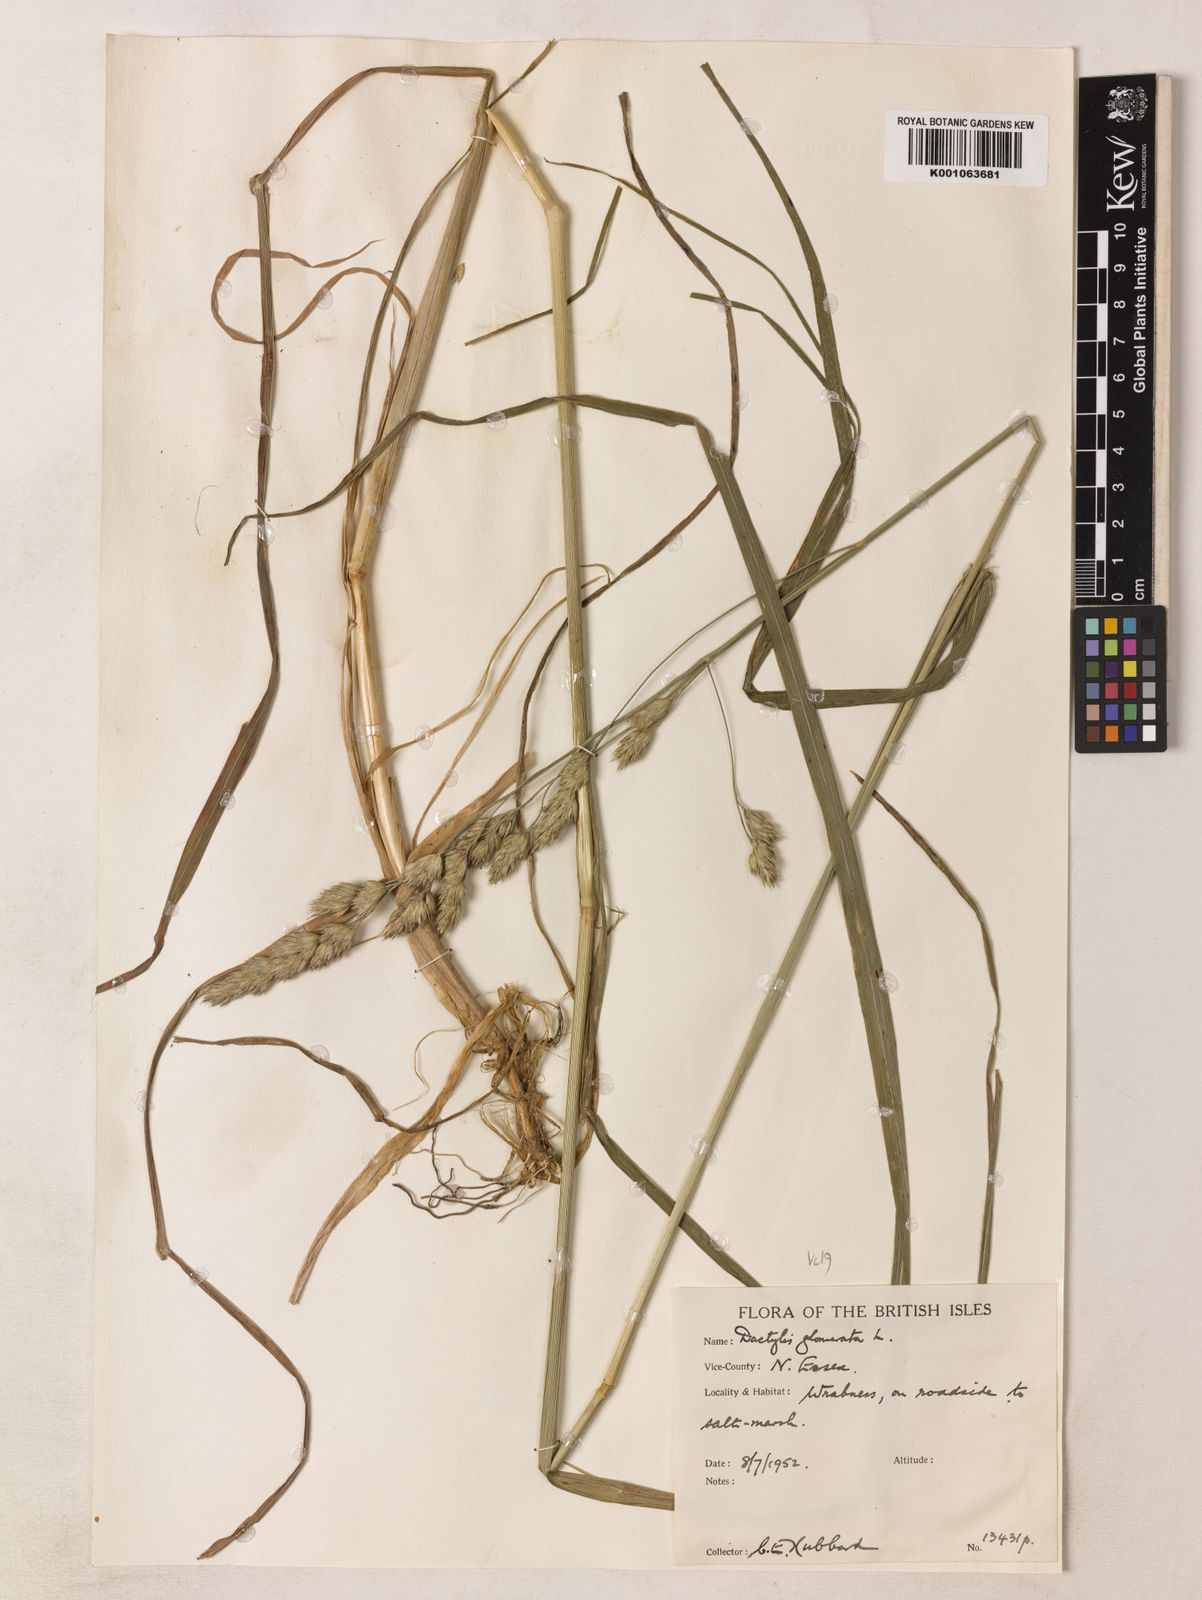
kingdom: Plantae
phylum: Tracheophyta
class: Liliopsida
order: Poales
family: Poaceae
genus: Dactylis
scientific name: Dactylis glomerata
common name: Orchardgrass
